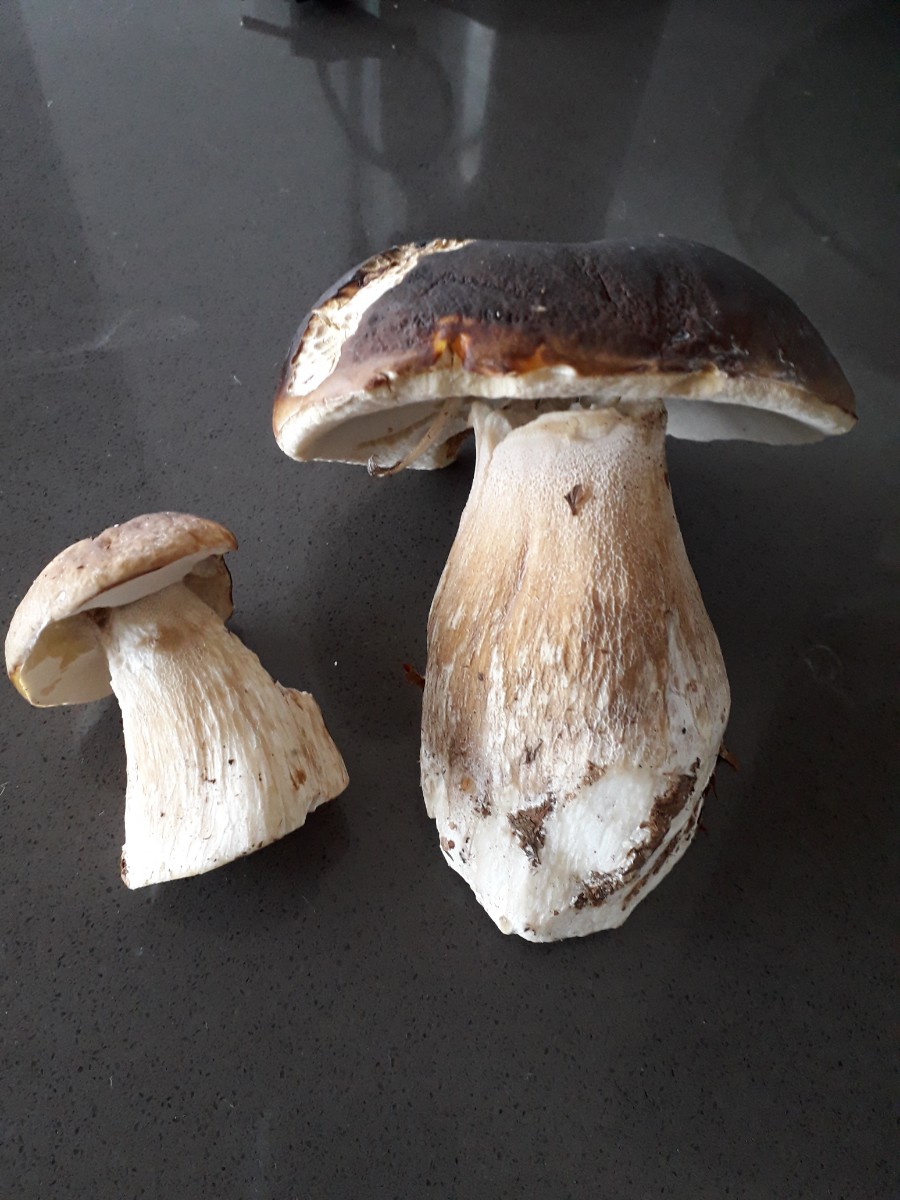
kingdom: Fungi
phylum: Basidiomycota
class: Agaricomycetes
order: Boletales
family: Boletaceae
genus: Boletus
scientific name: Boletus edulis
